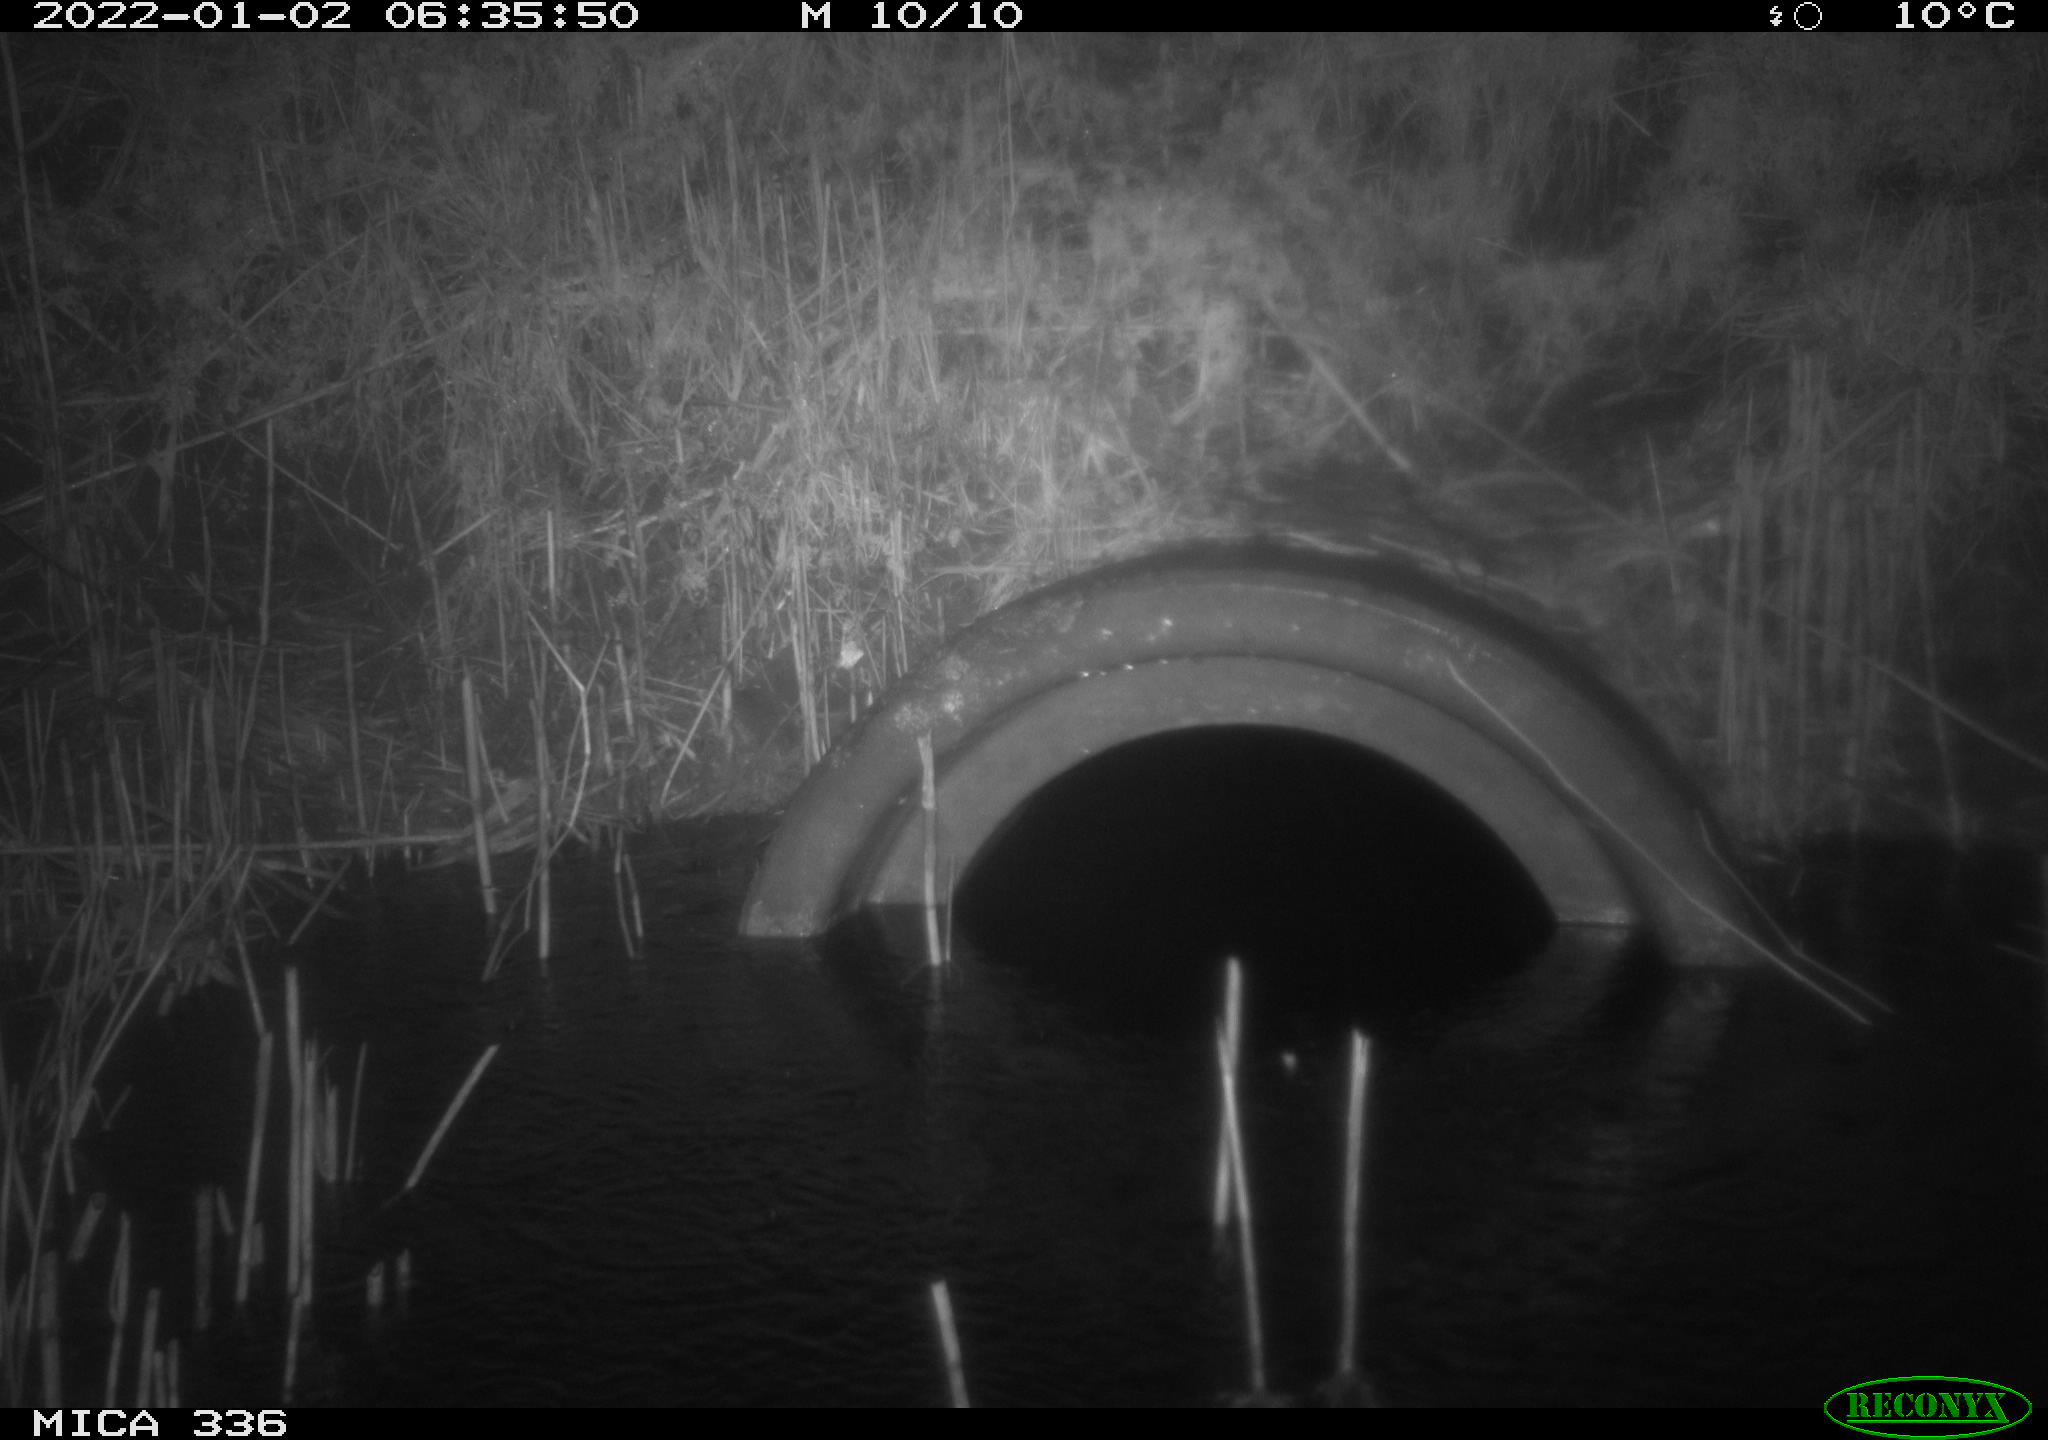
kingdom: Animalia
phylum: Chordata
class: Mammalia
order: Rodentia
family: Muridae
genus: Rattus
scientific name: Rattus norvegicus
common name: Brown rat
